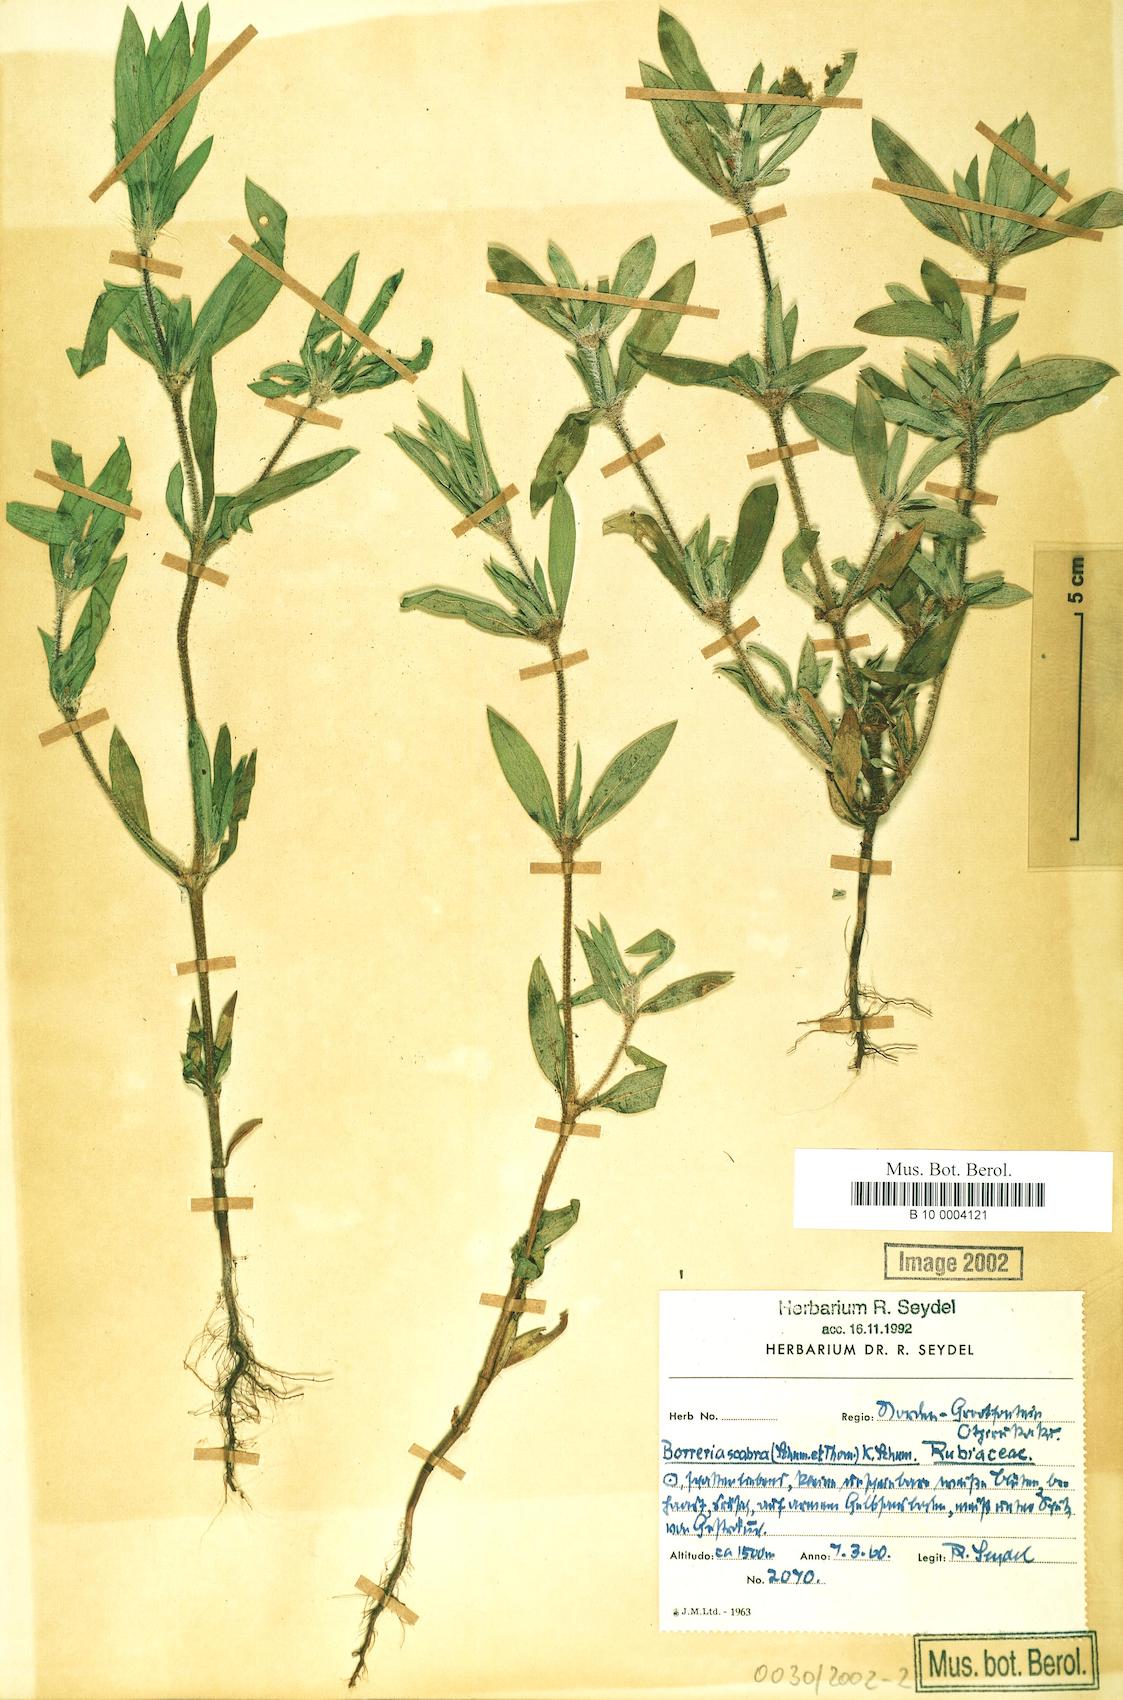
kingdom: Plantae
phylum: Tracheophyta
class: Magnoliopsida
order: Gentianales
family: Rubiaceae
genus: Spermacoce
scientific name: Spermacoce ruelliae
